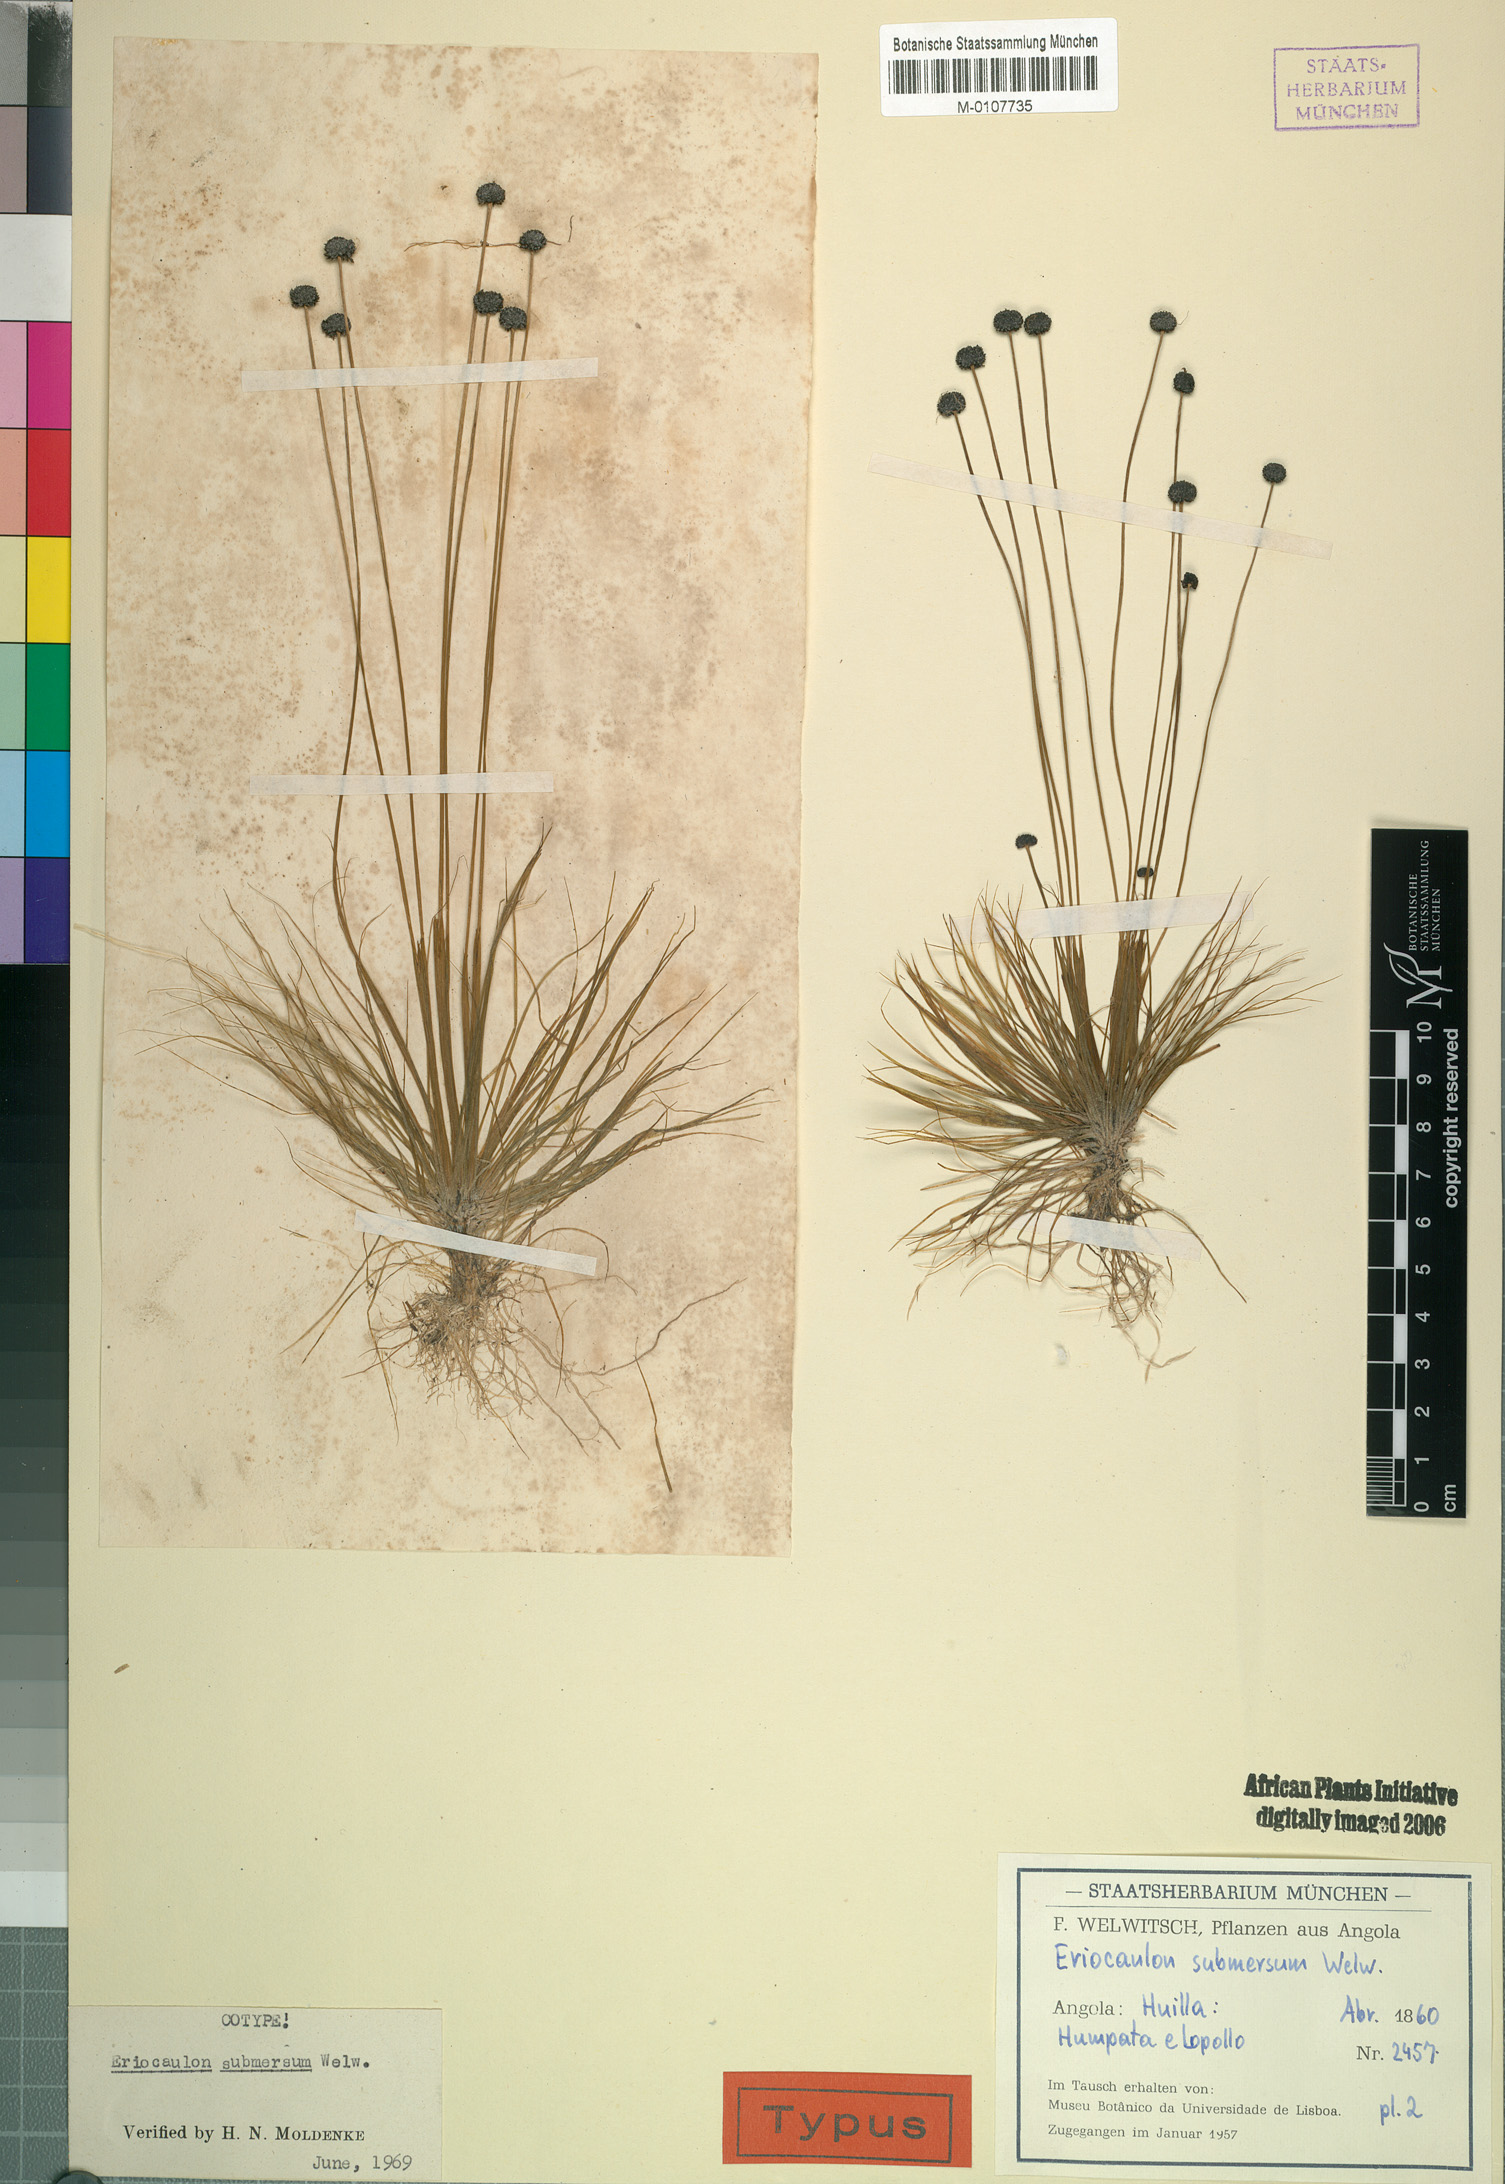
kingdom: Plantae
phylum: Tracheophyta
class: Liliopsida
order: Poales
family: Eriocaulaceae
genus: Eriocaulon
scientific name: Eriocaulon submersum
